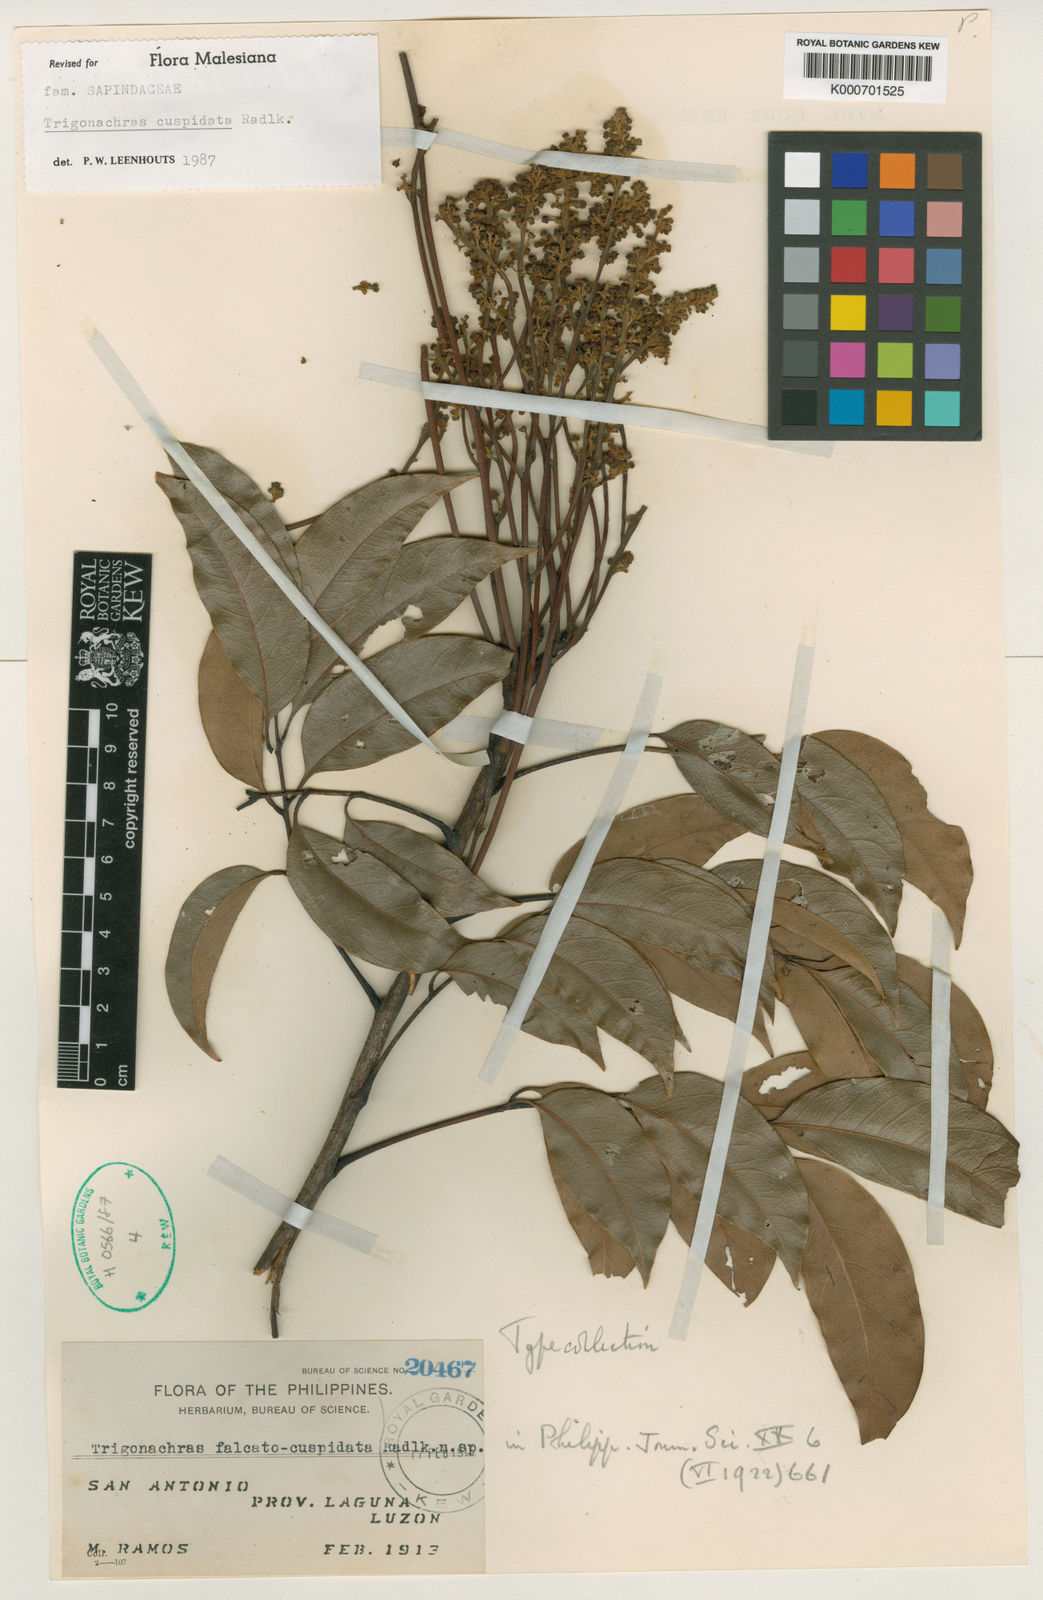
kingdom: Plantae
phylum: Tracheophyta
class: Magnoliopsida
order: Sapindales
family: Sapindaceae
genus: Trigonachras
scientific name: Trigonachras cuspidata
